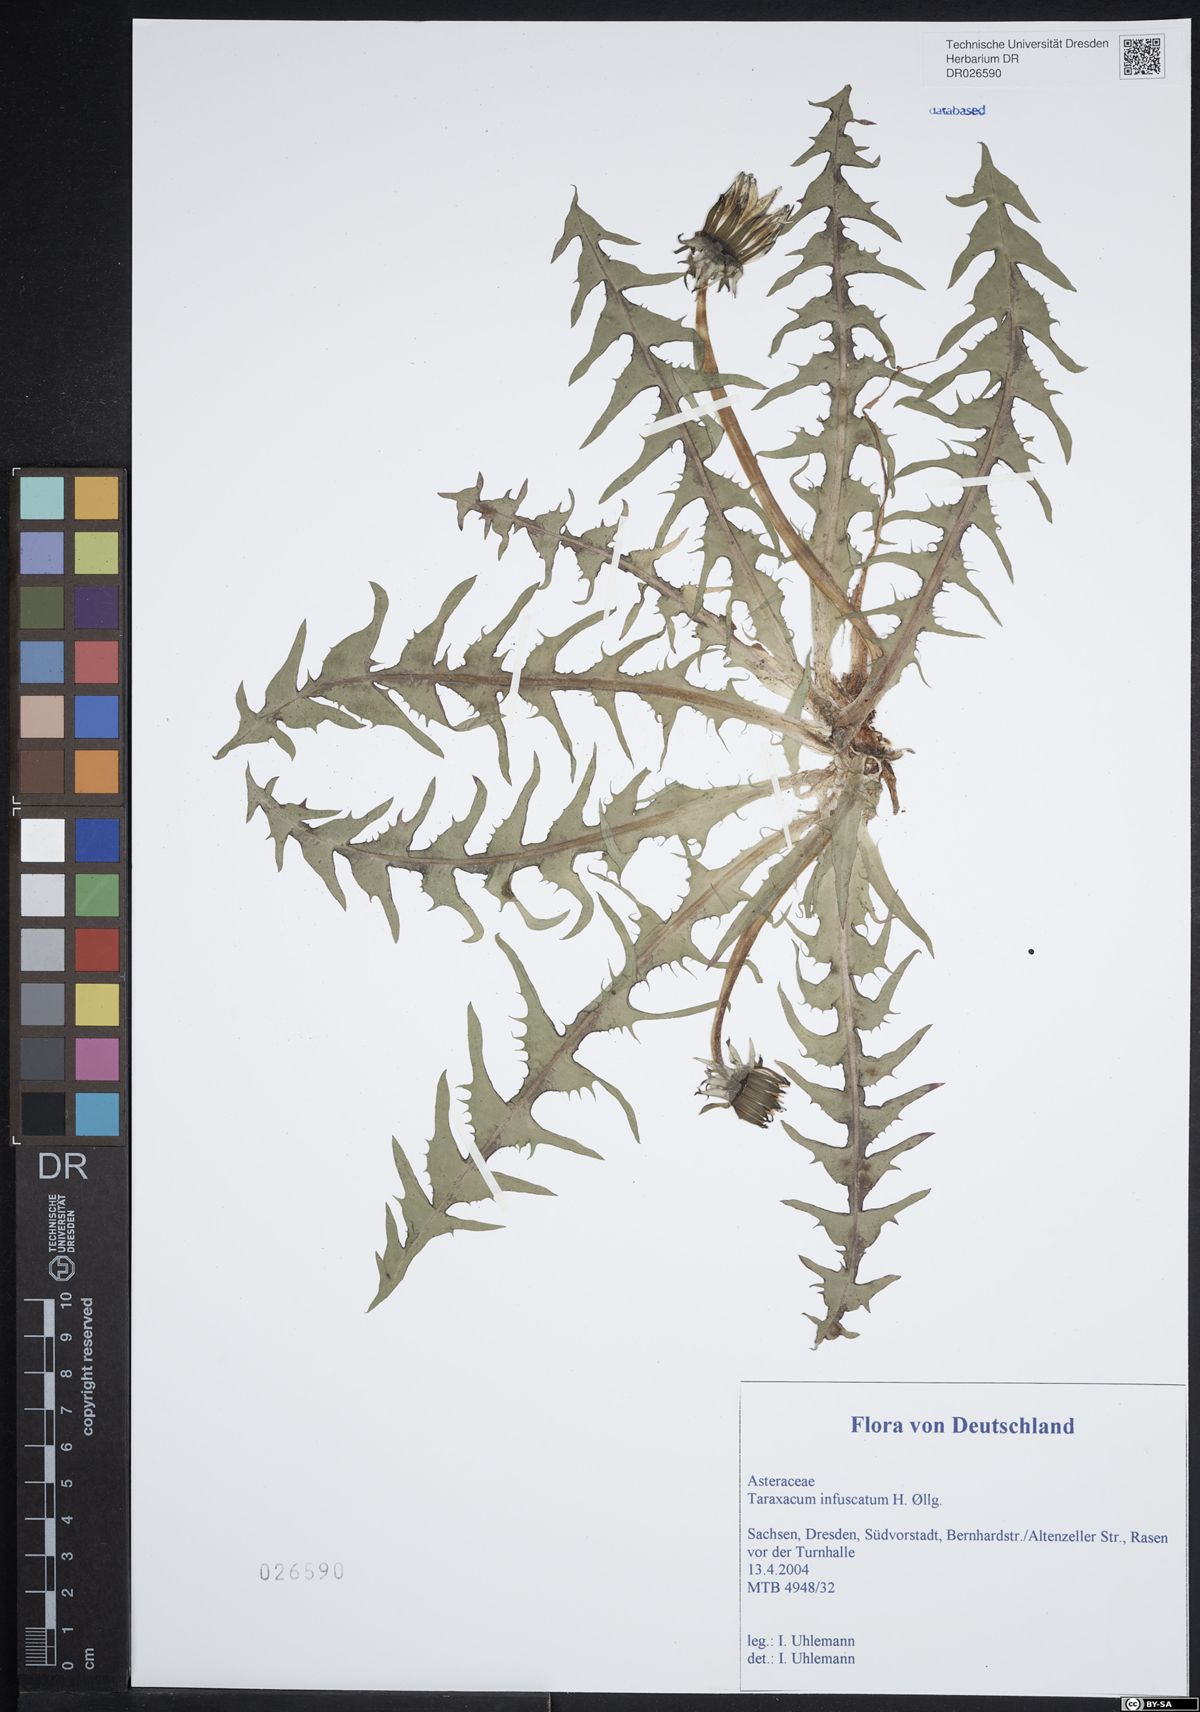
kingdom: Plantae
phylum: Tracheophyta
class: Magnoliopsida
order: Asterales
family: Asteraceae
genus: Taraxacum
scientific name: Taraxacum infuscatum
